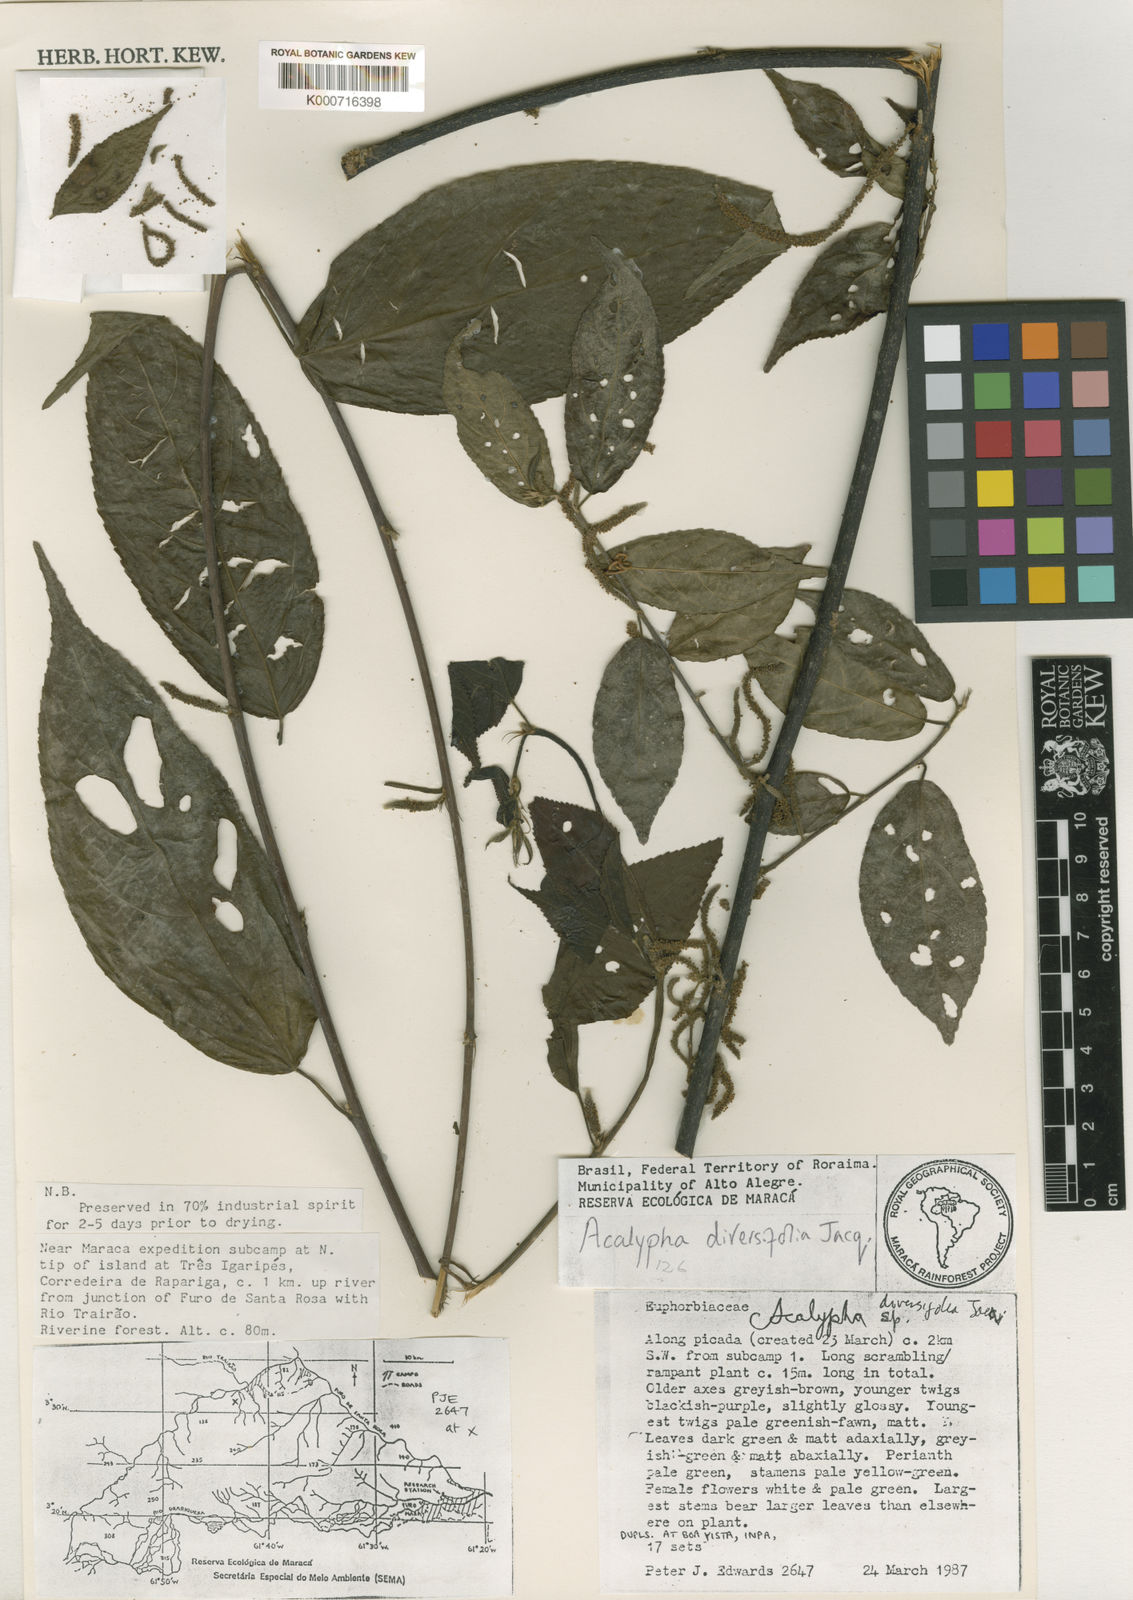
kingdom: Plantae
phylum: Tracheophyta
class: Magnoliopsida
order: Malpighiales
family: Euphorbiaceae
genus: Acalypha
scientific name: Acalypha diversifolia
